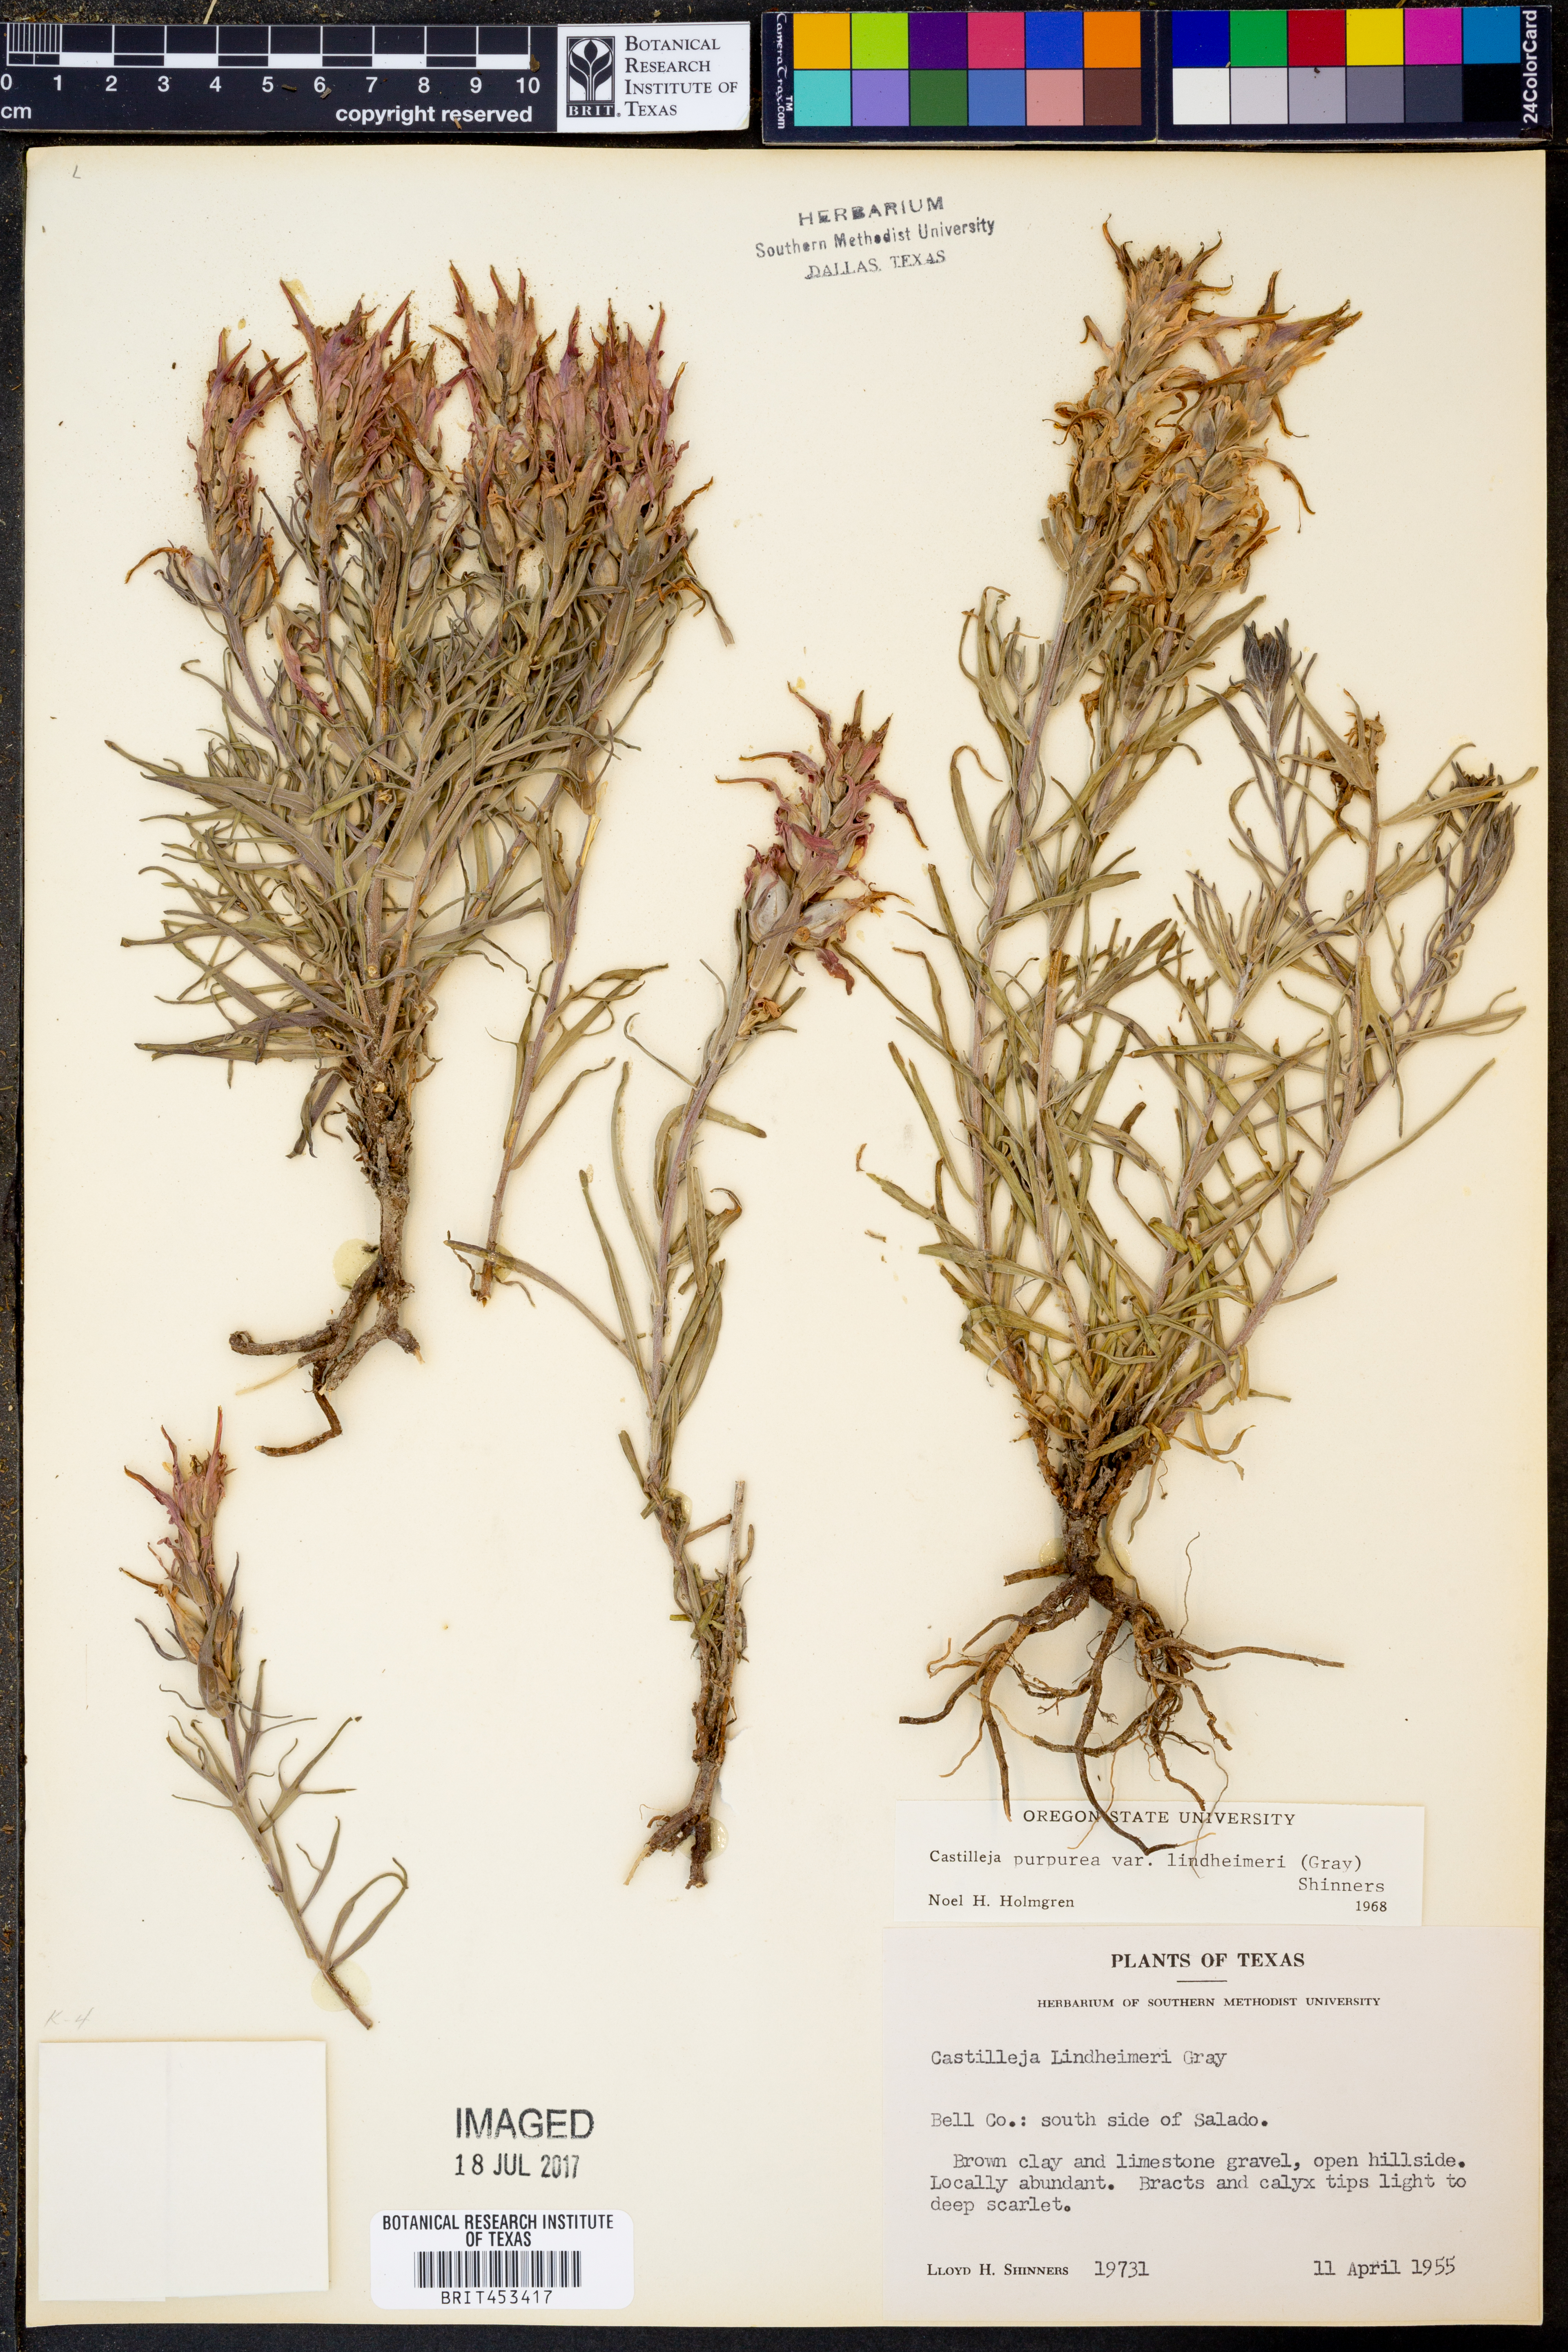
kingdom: Plantae
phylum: Tracheophyta
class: Magnoliopsida
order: Lamiales
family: Orobanchaceae
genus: Castilleja
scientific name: Castilleja lindheimeri
